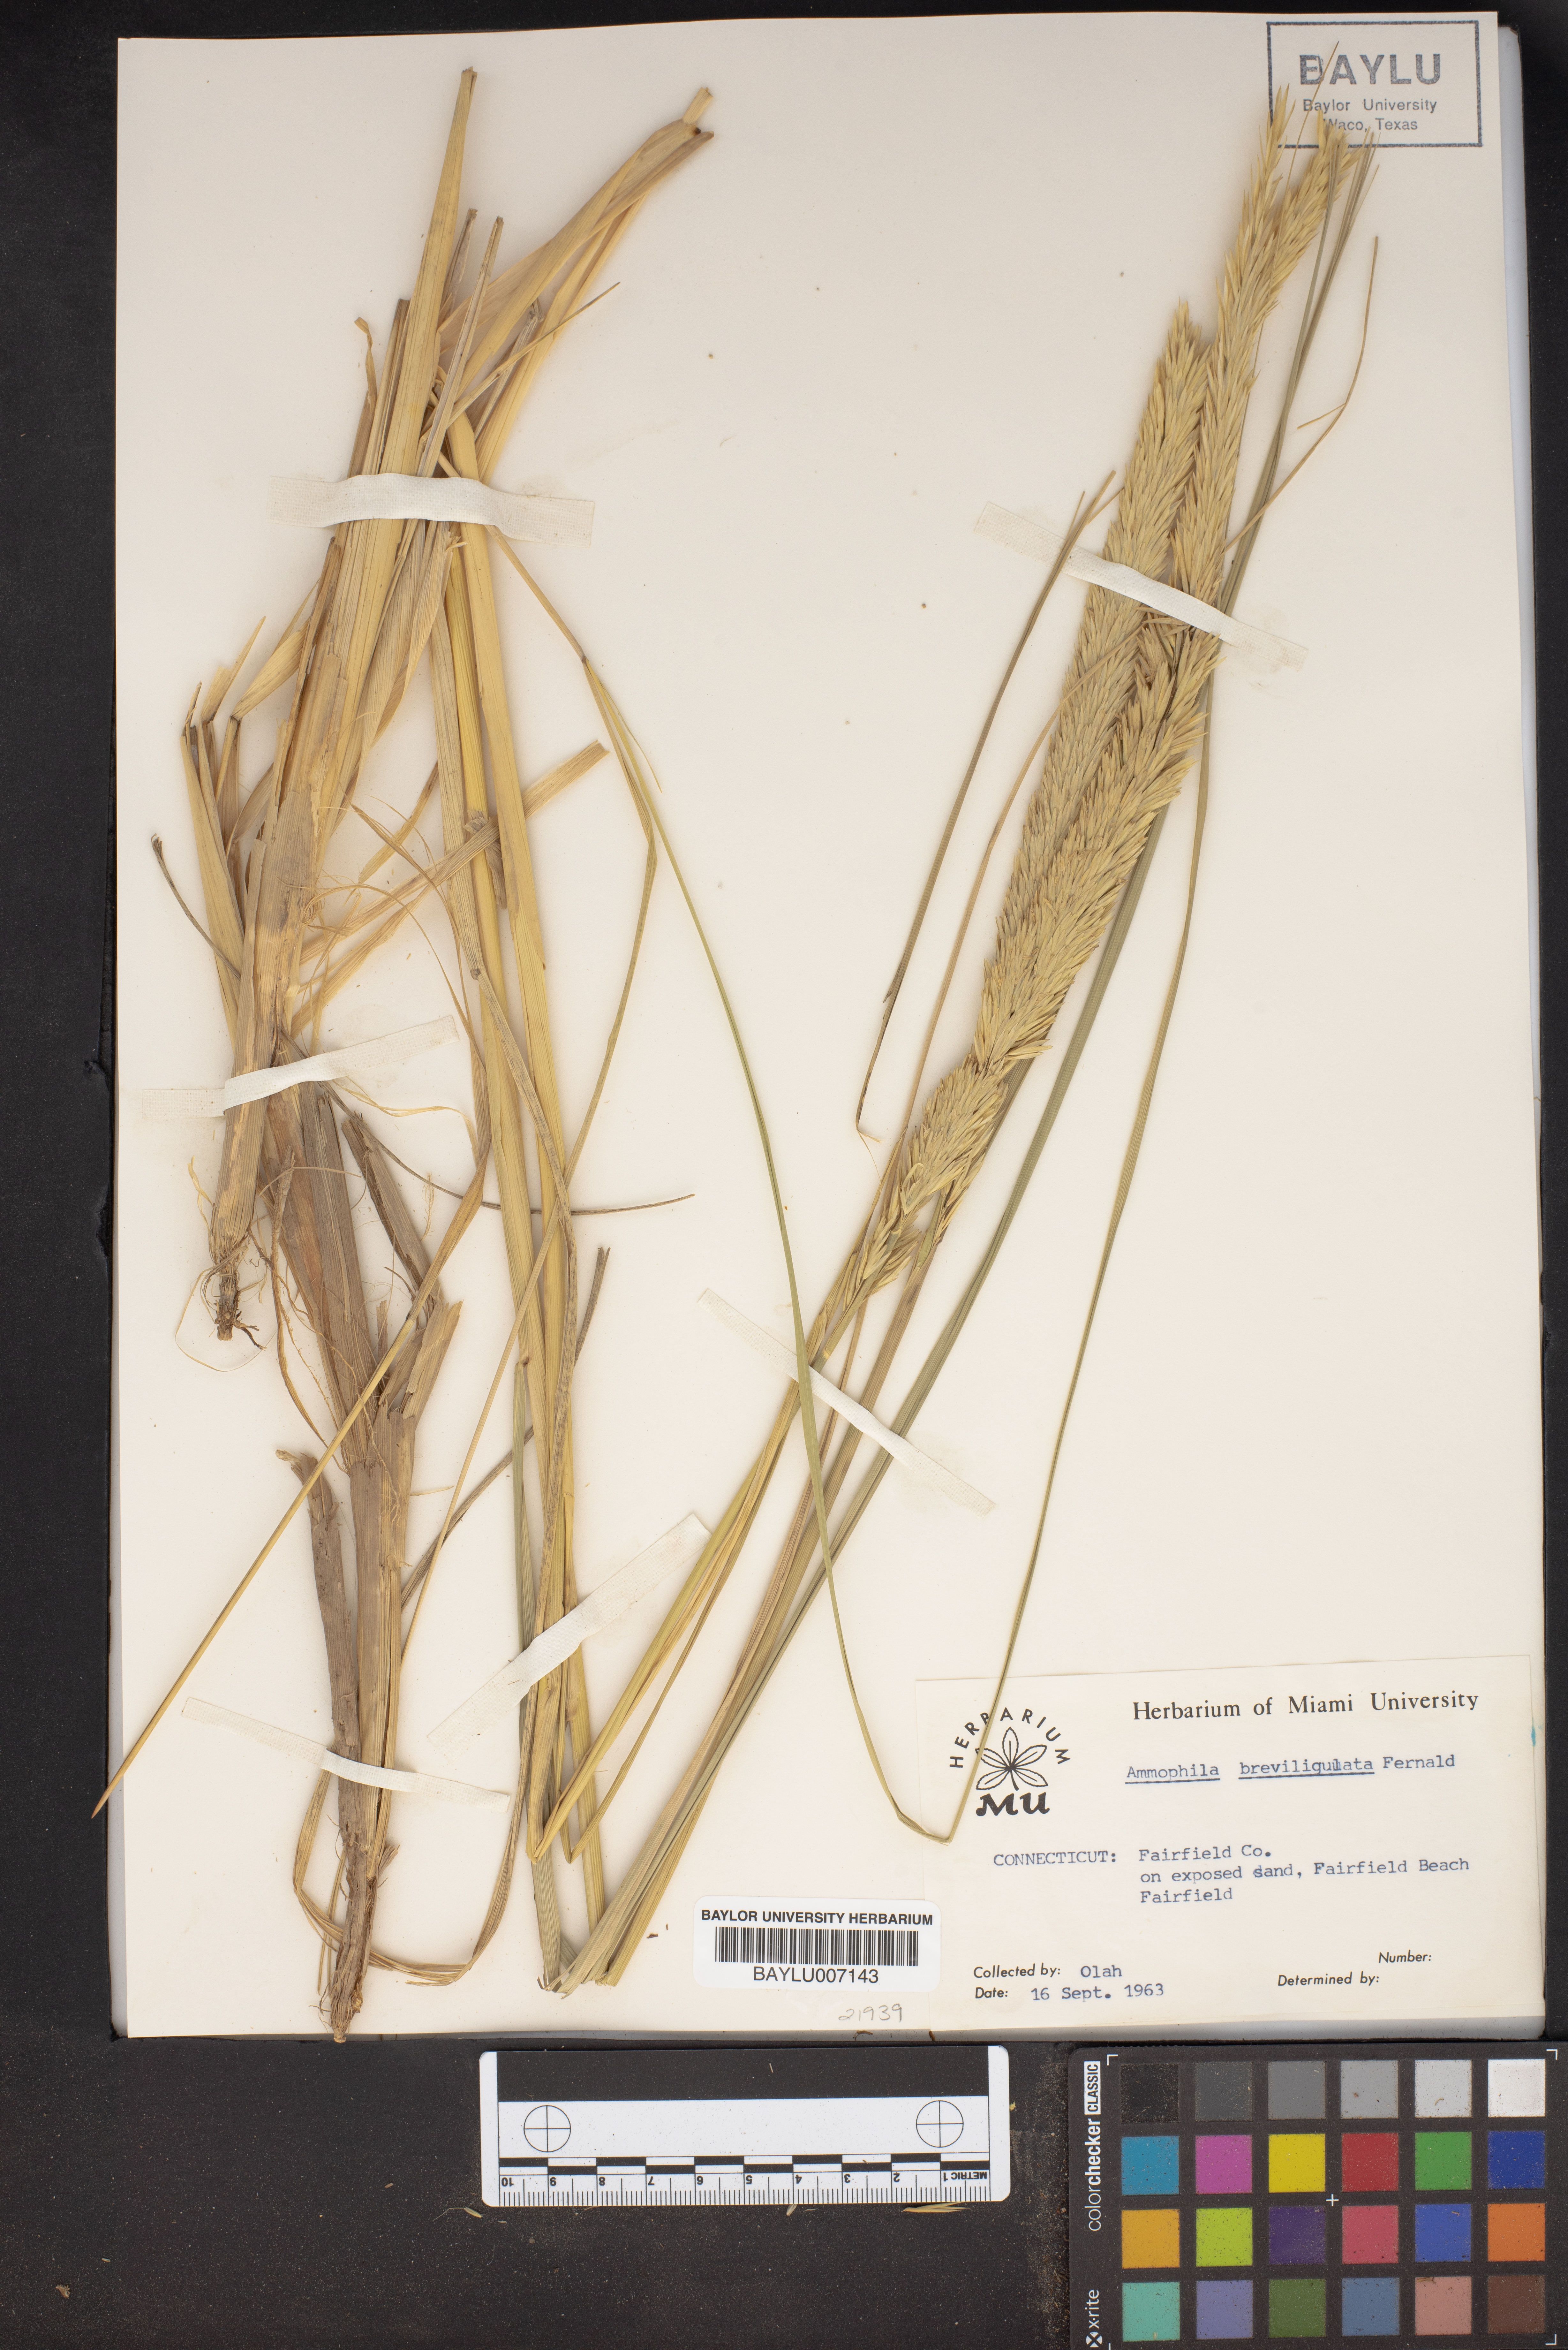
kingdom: Plantae
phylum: Tracheophyta
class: Liliopsida
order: Poales
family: Poaceae
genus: Calamagrostis
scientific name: Calamagrostis breviligulata
